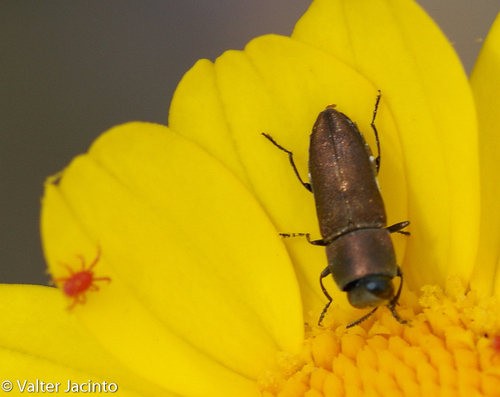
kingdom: Animalia
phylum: Arthropoda
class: Insecta
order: Coleoptera
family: Buprestidae
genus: Anthaxia
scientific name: Anthaxia umbellatarum
